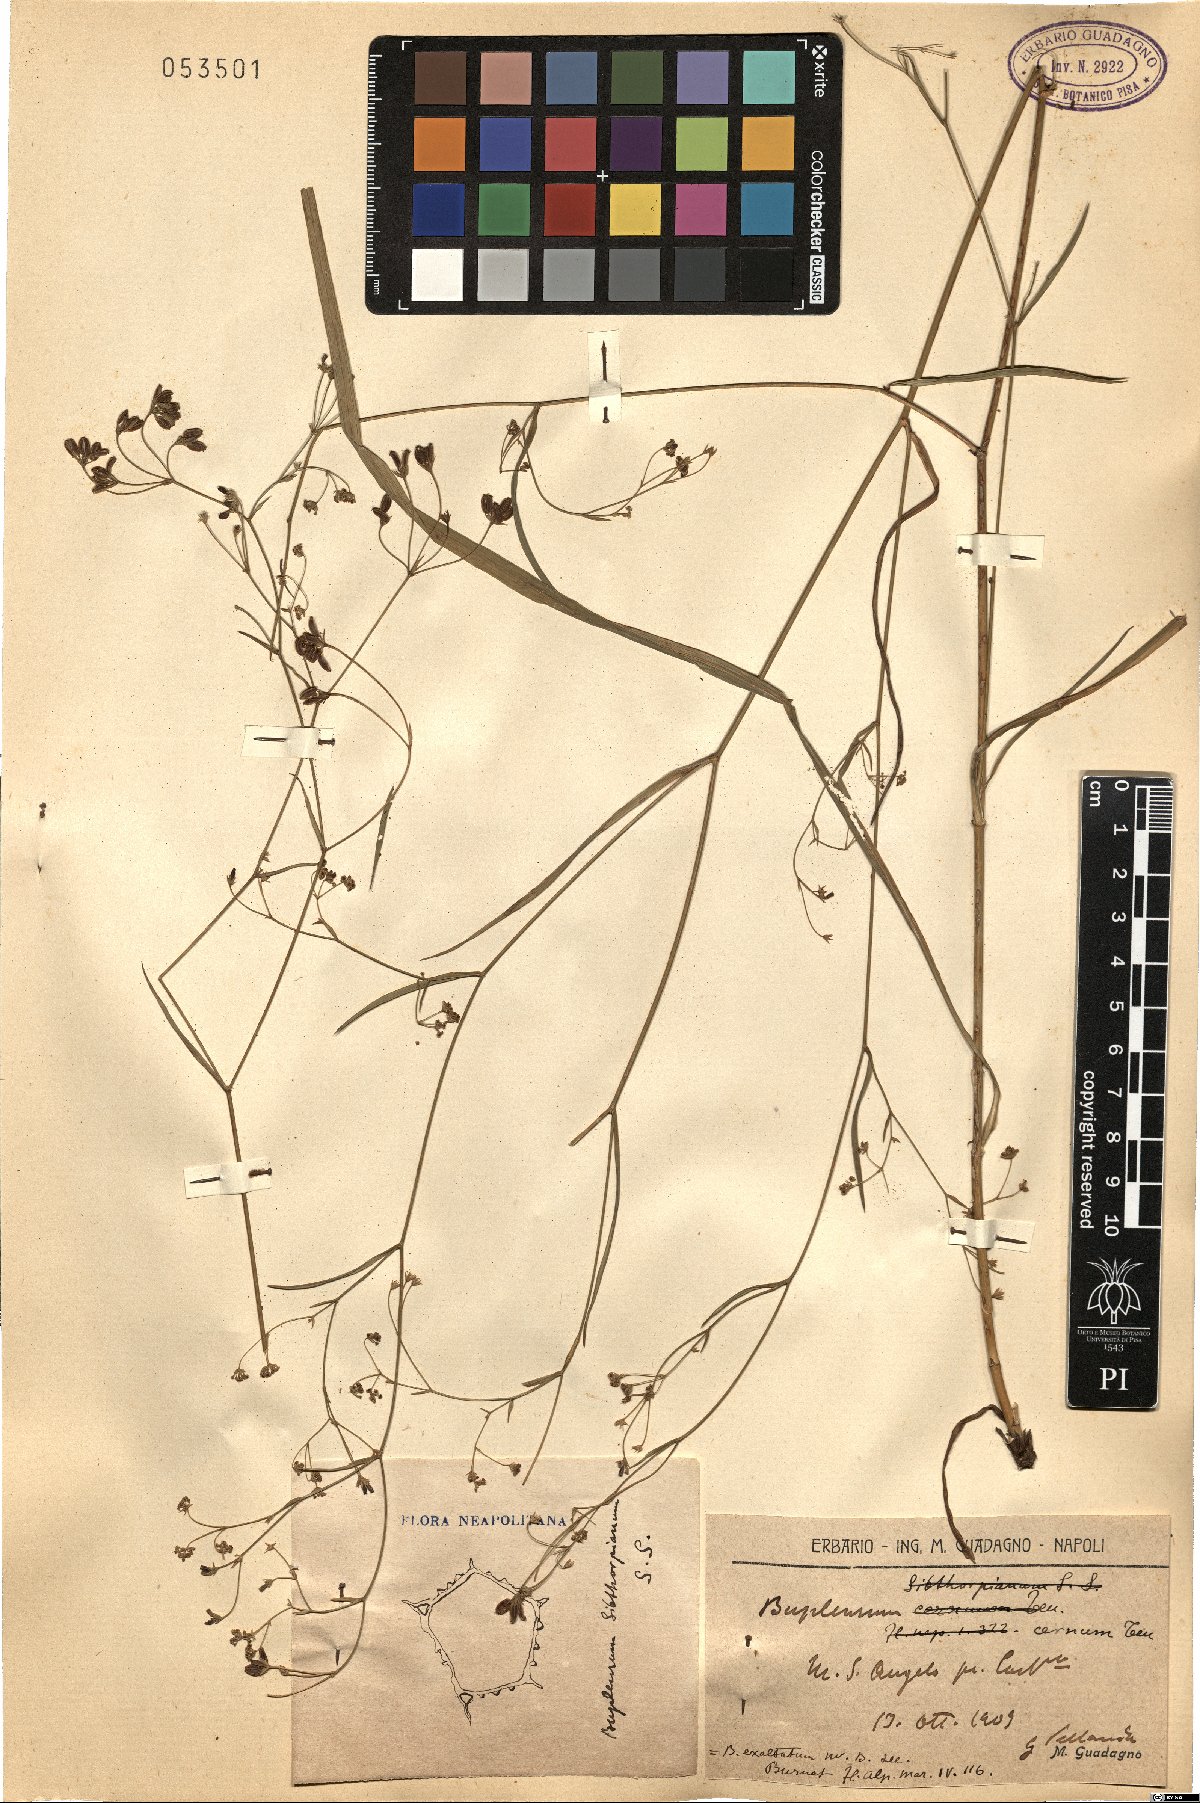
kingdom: Plantae
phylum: Tracheophyta
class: Magnoliopsida
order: Apiales
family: Apiaceae
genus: Bupleurum
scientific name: Bupleurum falcatum
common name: Sickle-leaved hare's-ear
